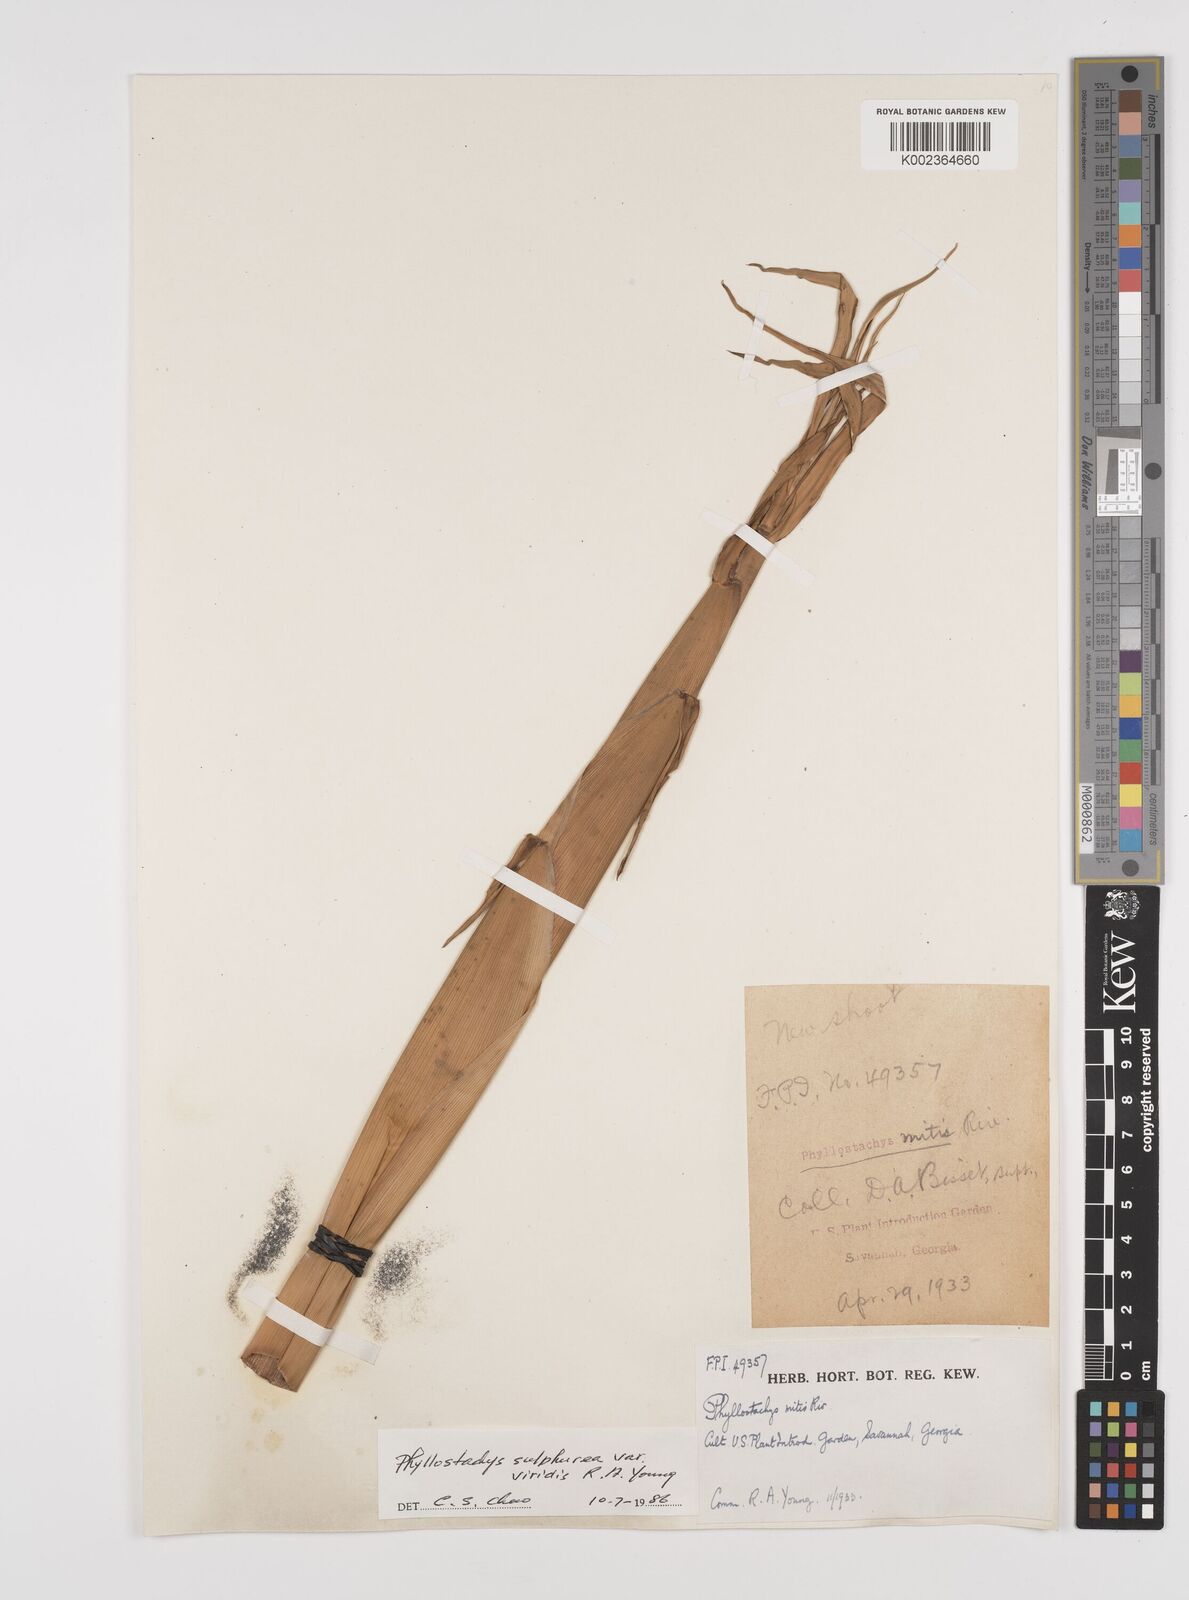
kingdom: Plantae
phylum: Tracheophyta
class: Liliopsida
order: Poales
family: Poaceae
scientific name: Poaceae
